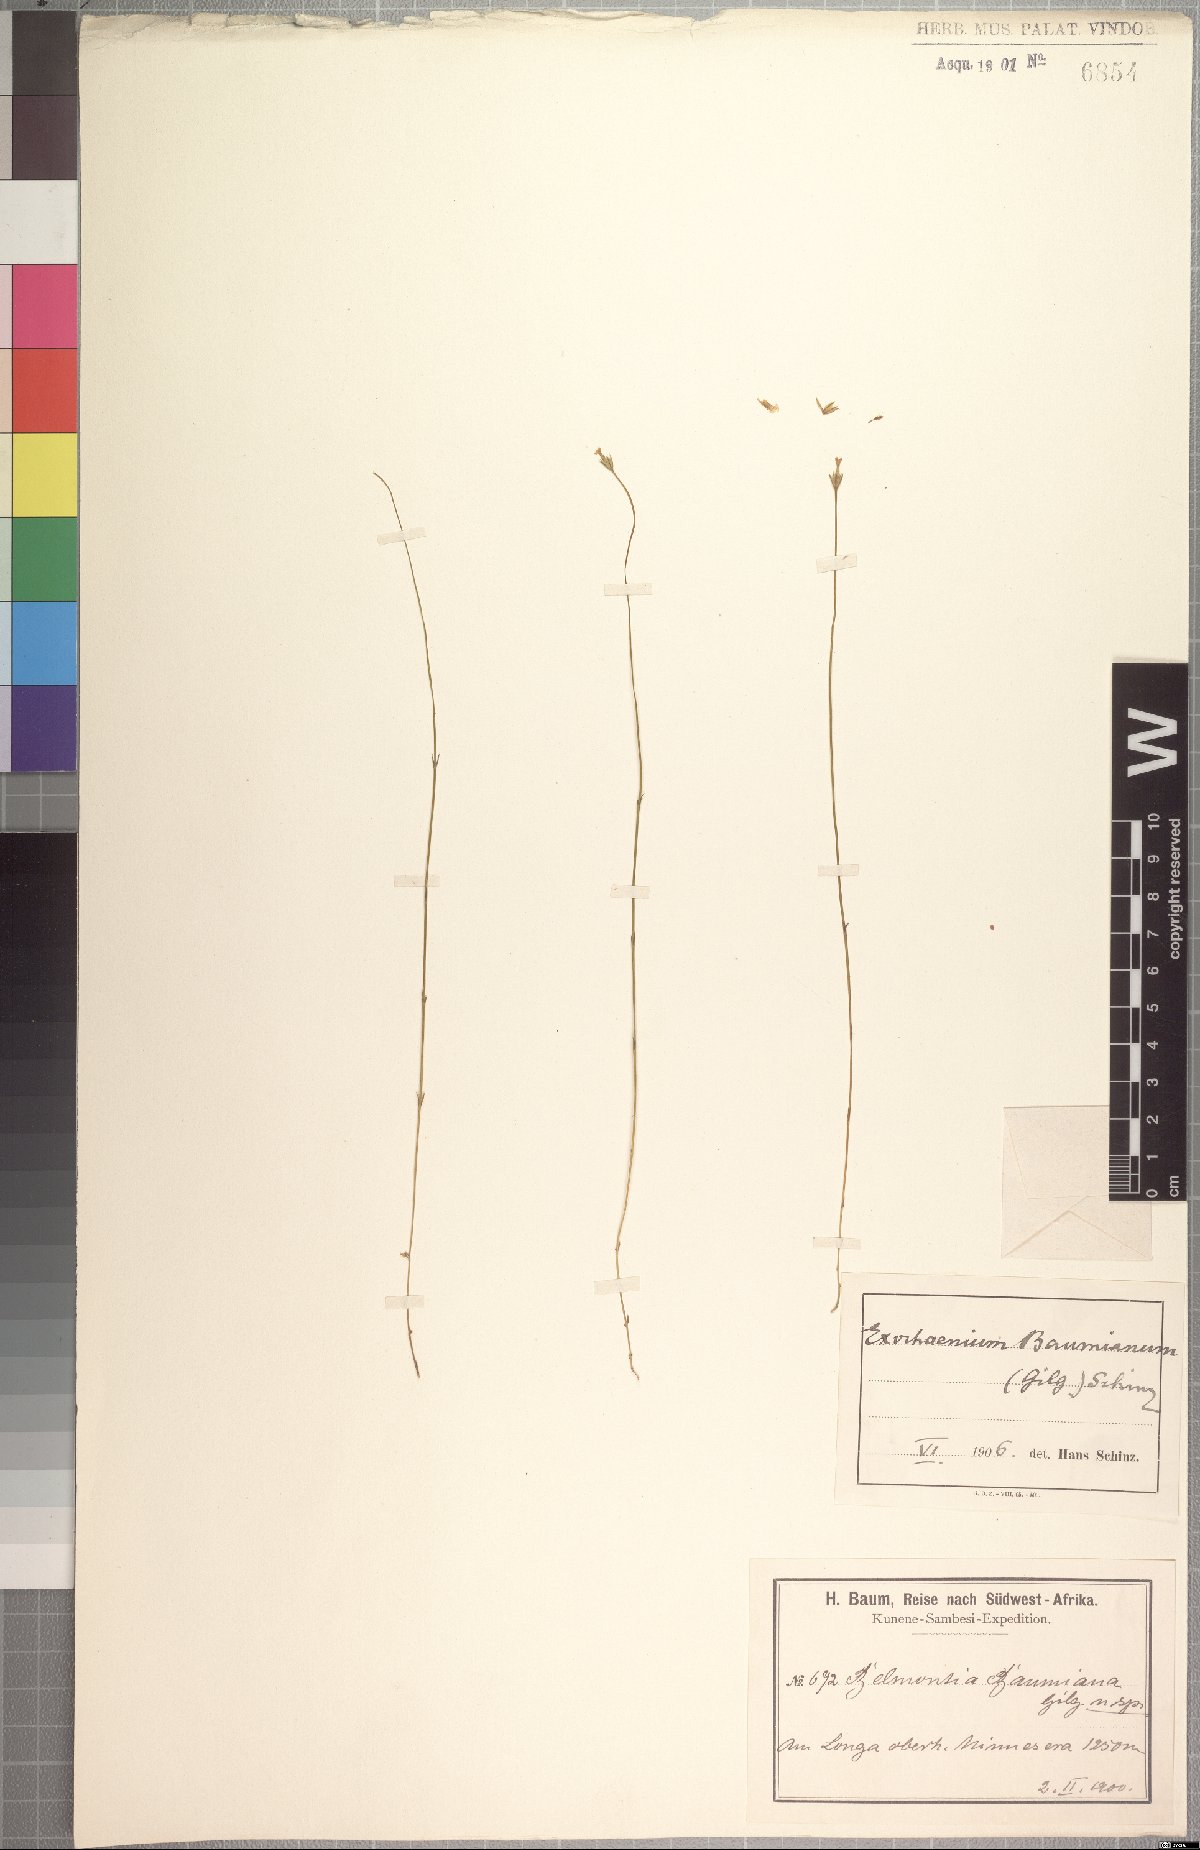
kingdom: Plantae
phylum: Tracheophyta
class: Magnoliopsida
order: Gentianales
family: Gentianaceae
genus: Exochaenium
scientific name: Exochaenium baumianum
